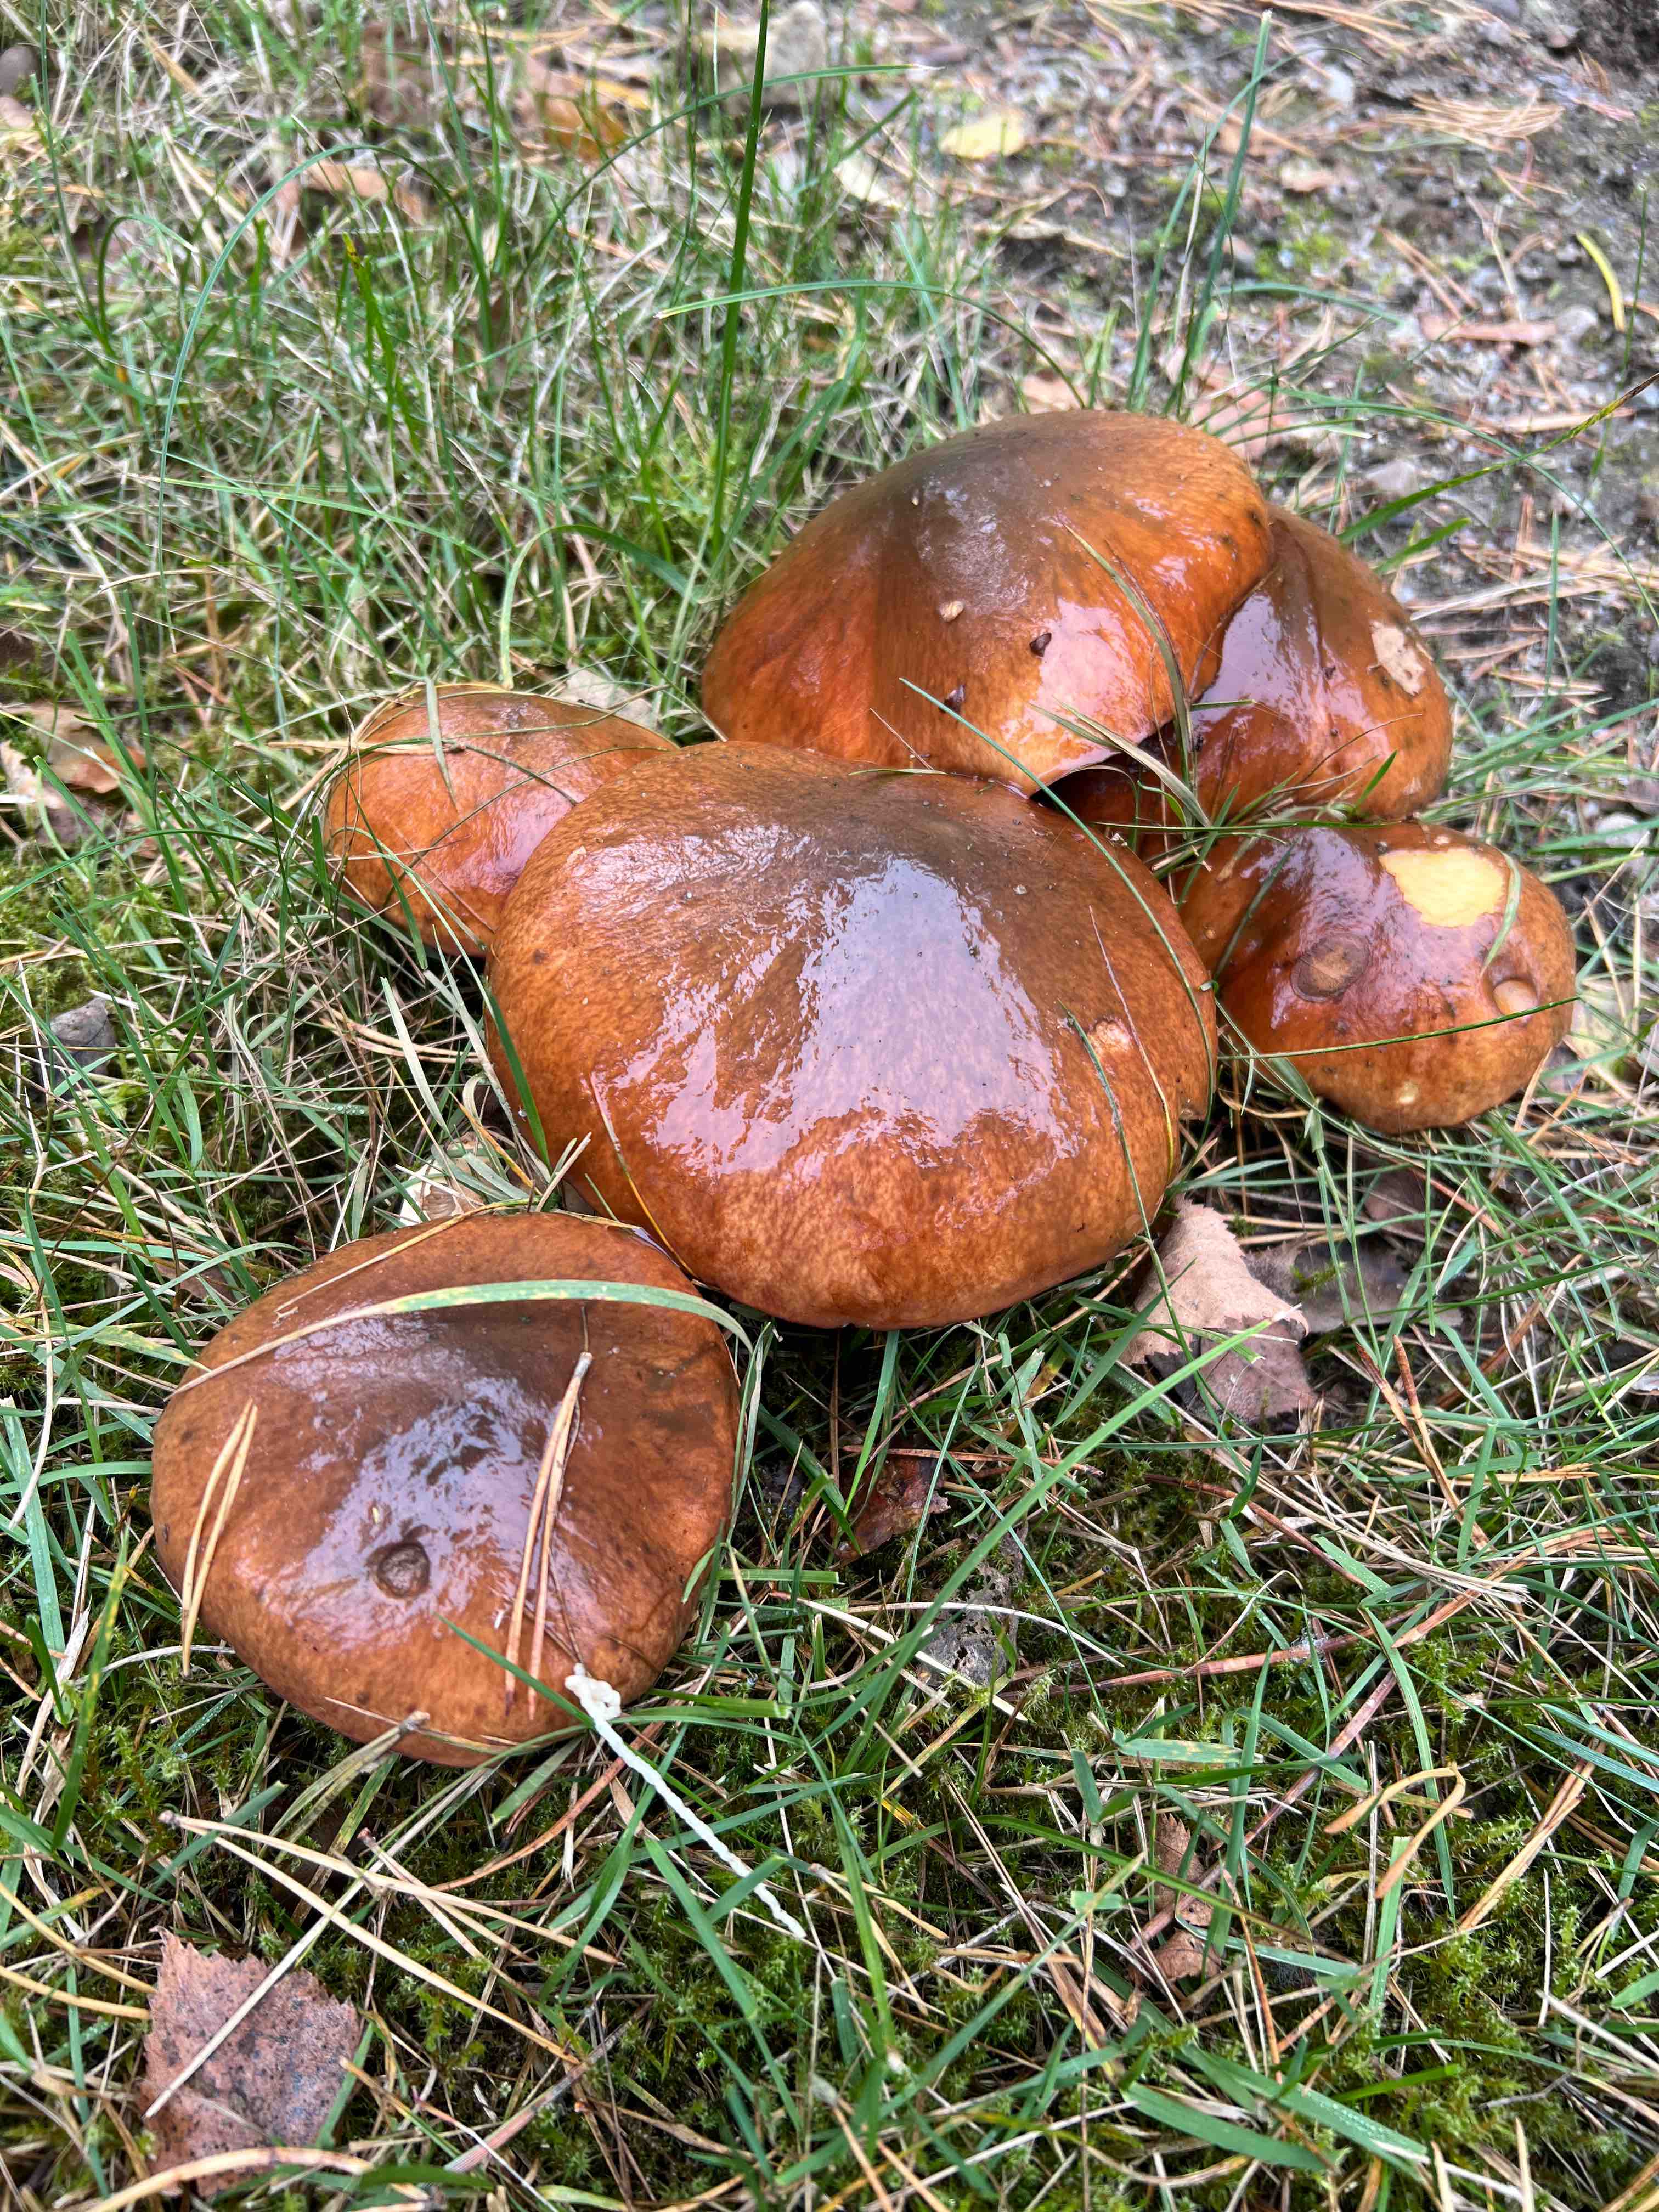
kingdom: Fungi
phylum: Basidiomycota
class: Agaricomycetes
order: Boletales
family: Suillaceae
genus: Suillus
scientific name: Suillus luteus
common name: brungul slimrørhat
